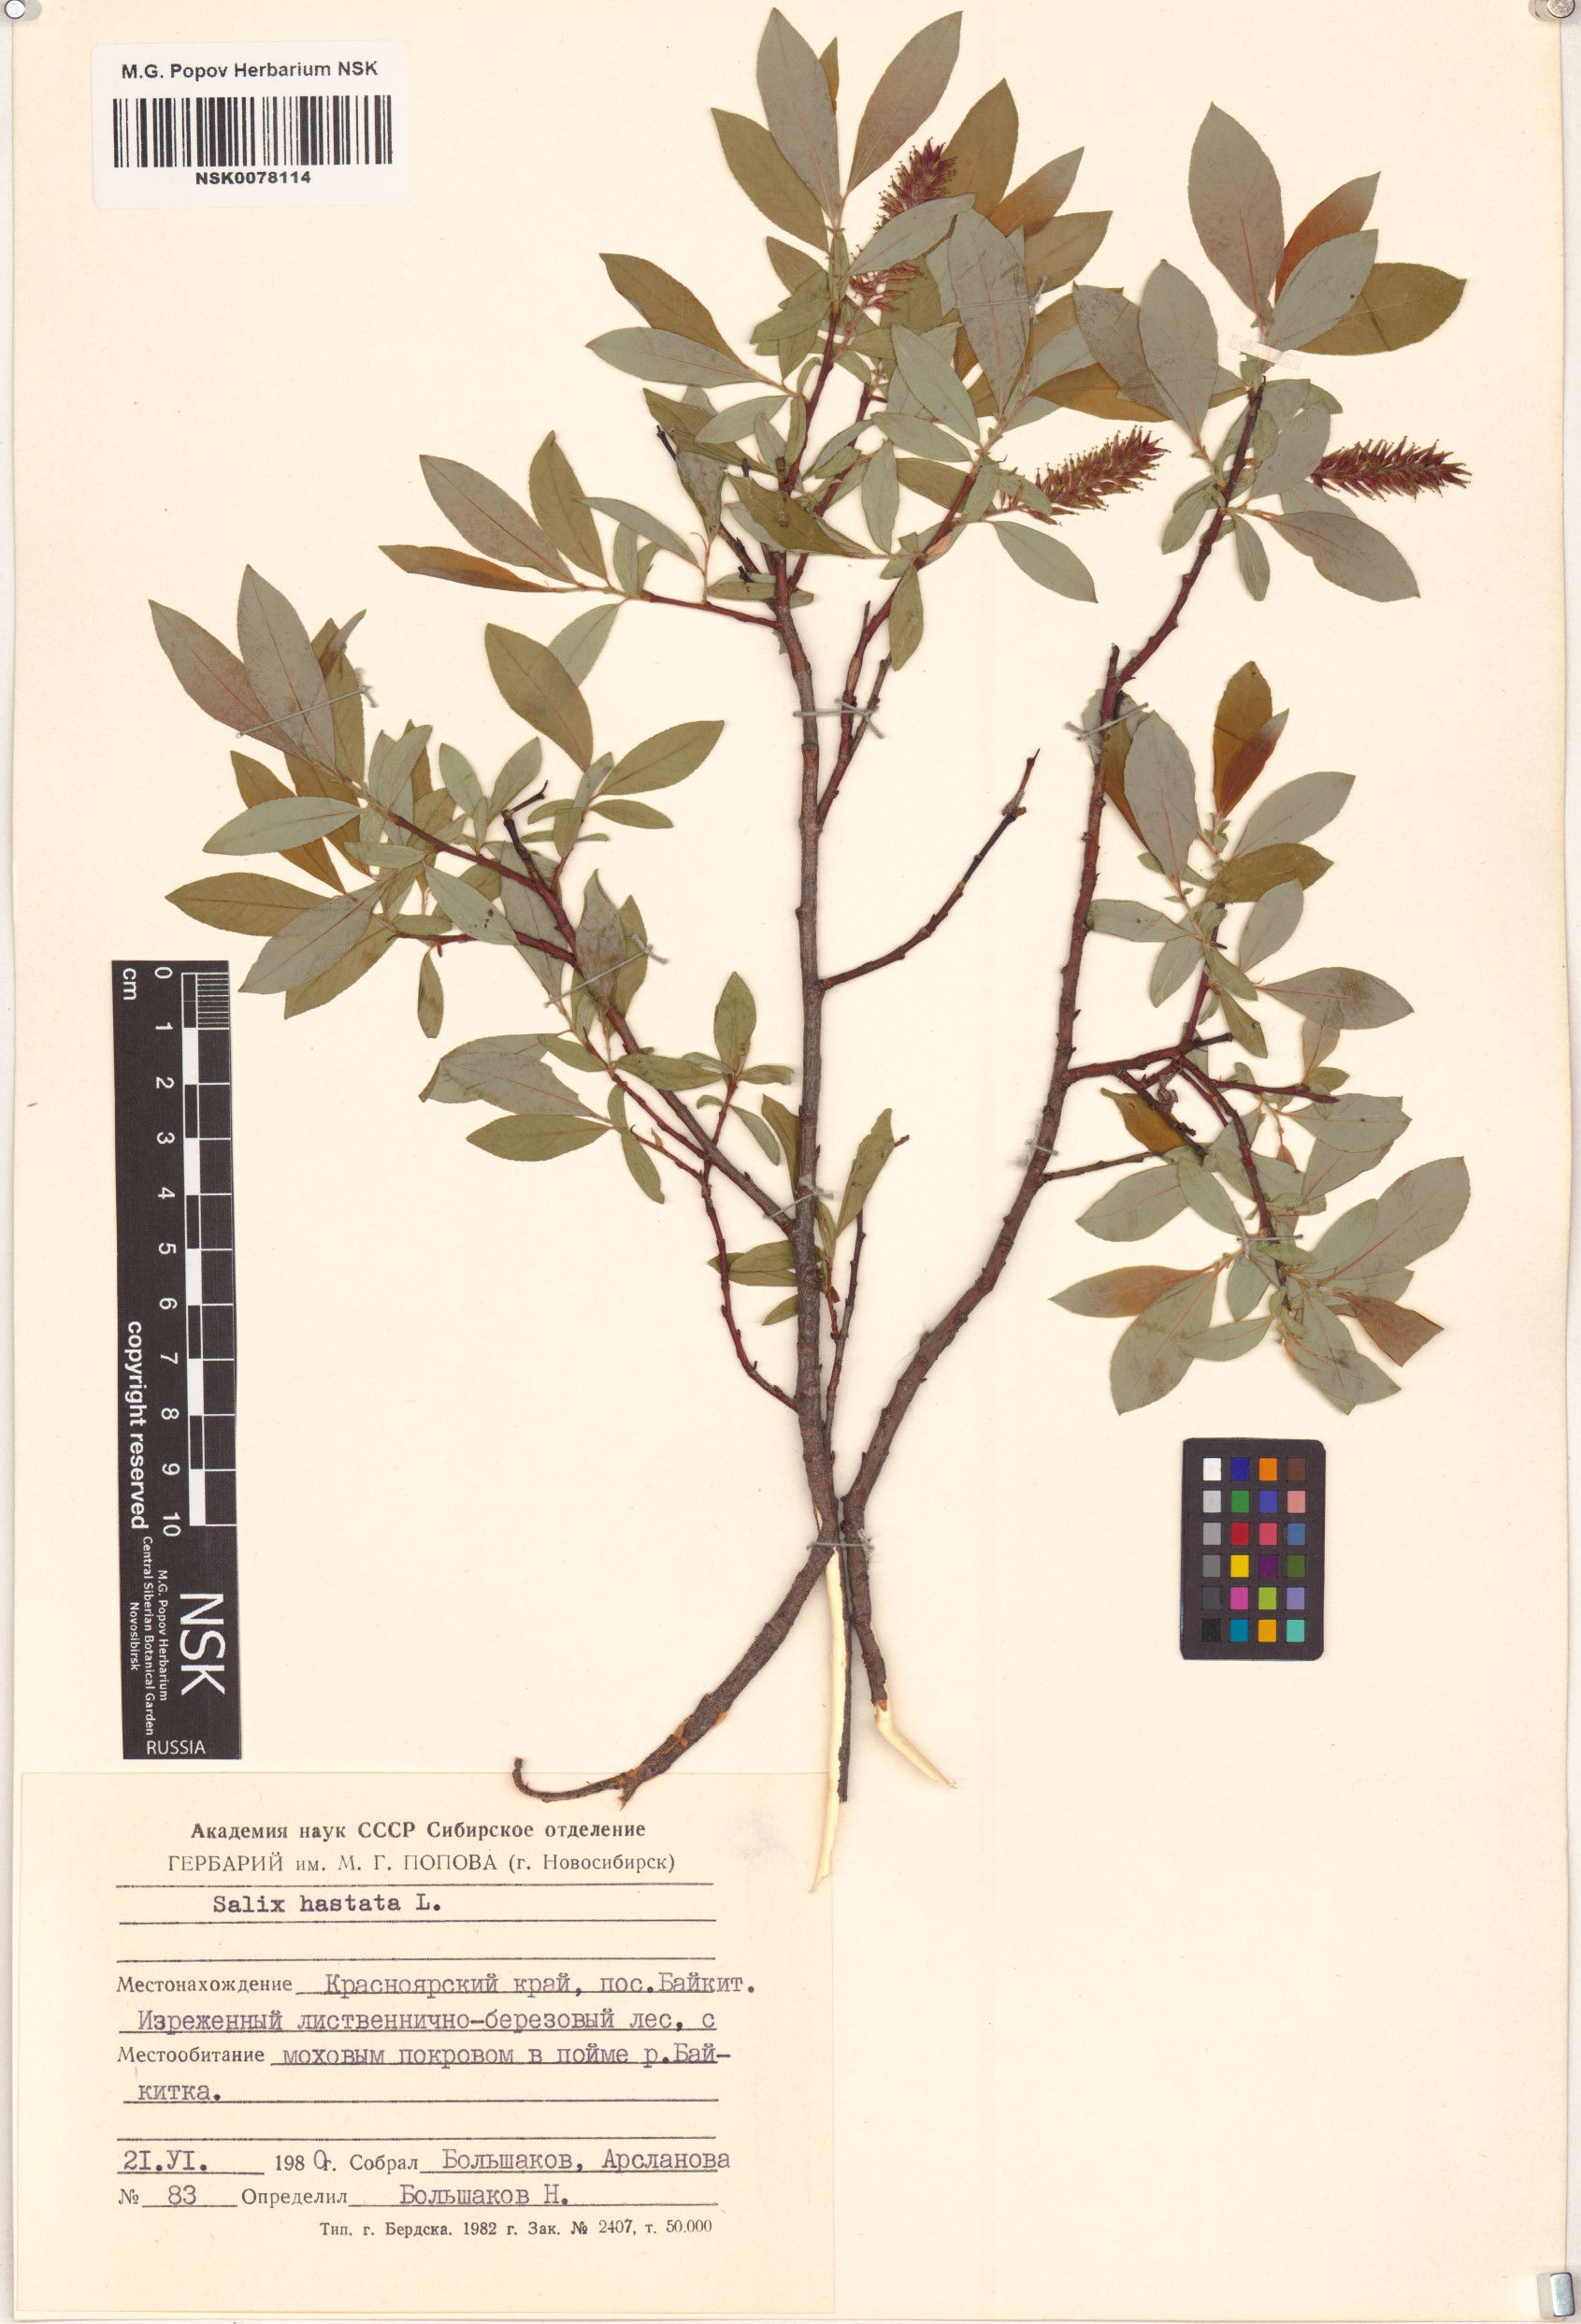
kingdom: Plantae
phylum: Tracheophyta
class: Magnoliopsida
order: Malpighiales
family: Salicaceae
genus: Salix
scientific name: Salix hastata
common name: Halberd willow
